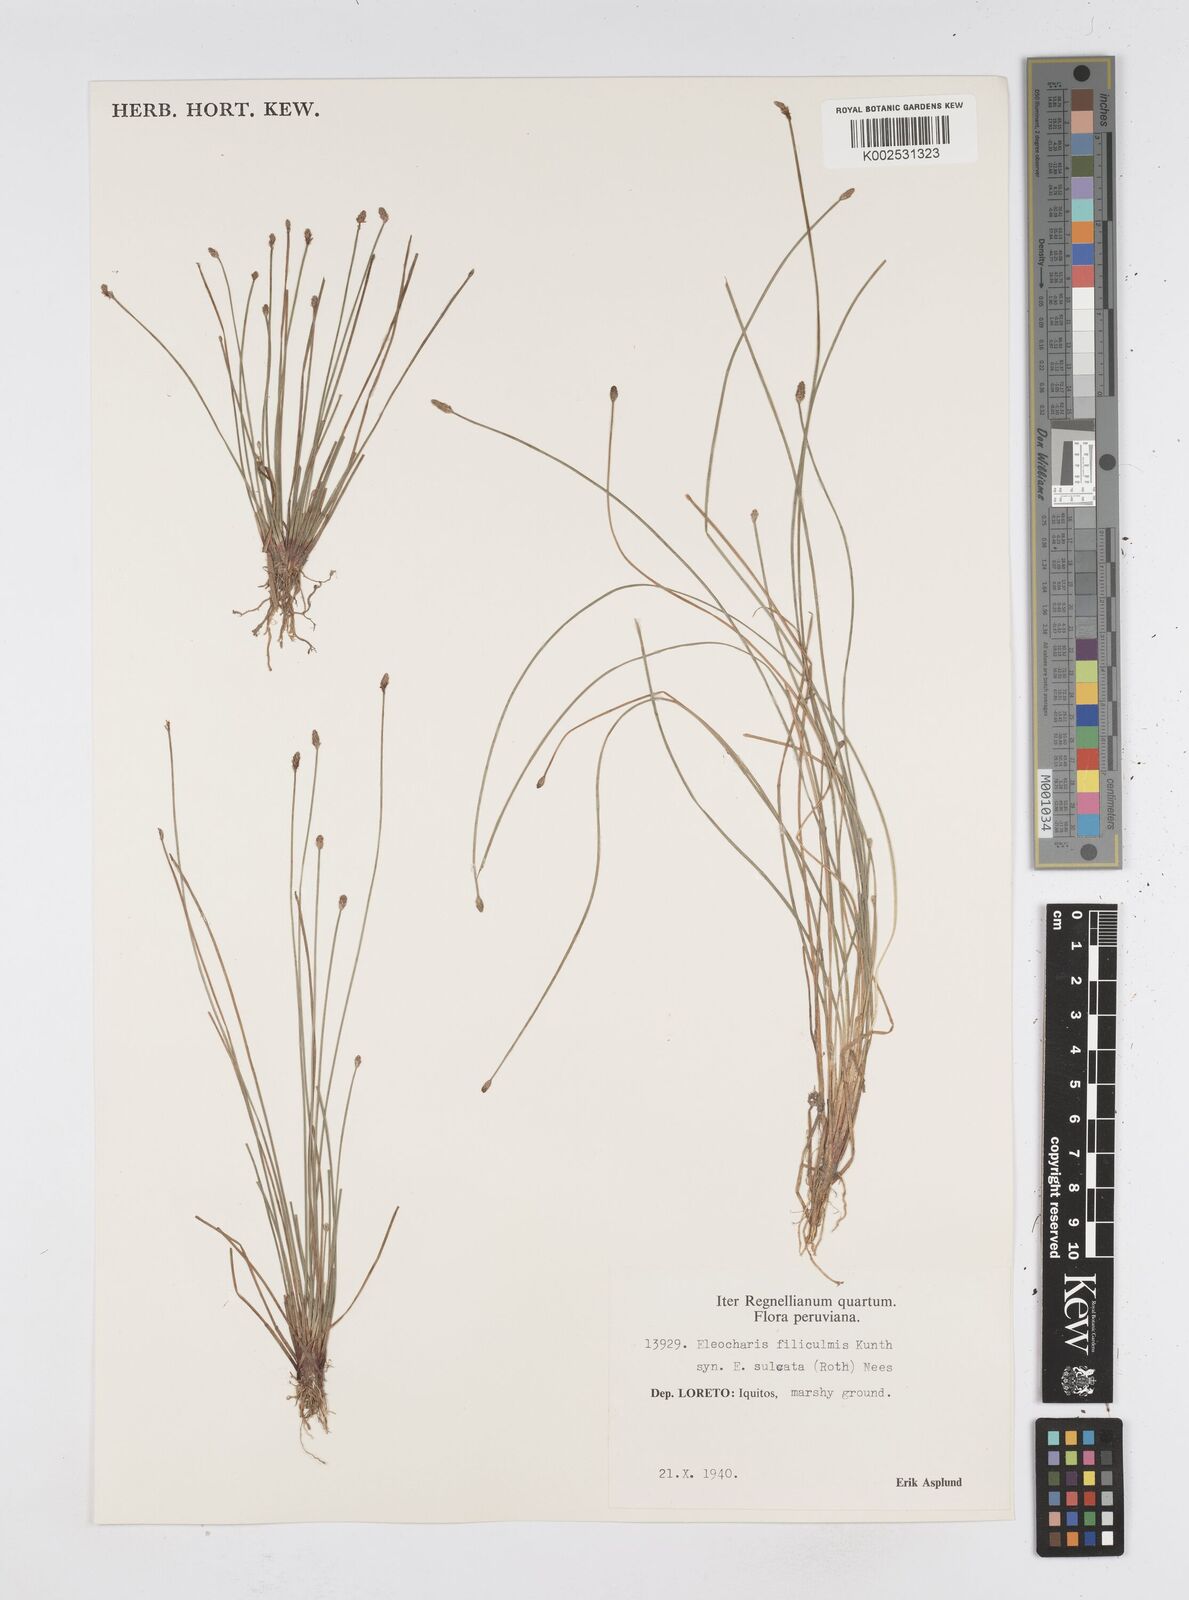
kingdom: Plantae
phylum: Tracheophyta
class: Liliopsida
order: Poales
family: Cyperaceae
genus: Eleocharis
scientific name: Eleocharis filiculmis
